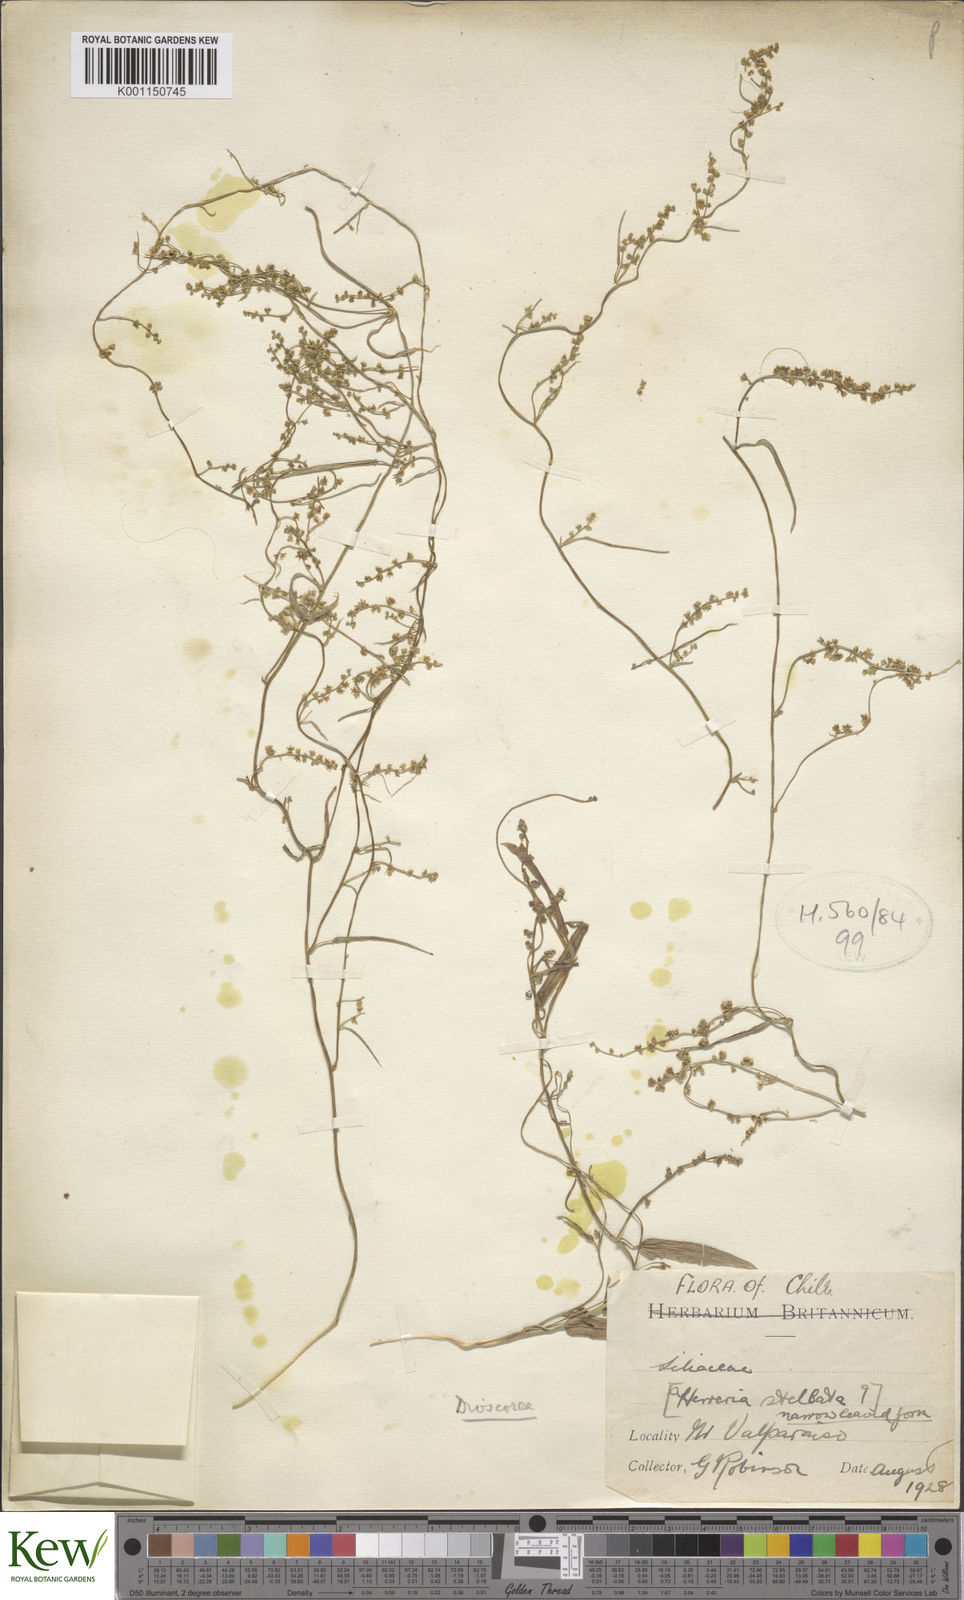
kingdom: Plantae
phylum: Tracheophyta
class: Liliopsida
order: Dioscoreales
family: Dioscoreaceae
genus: Dioscorea
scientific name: Dioscorea
